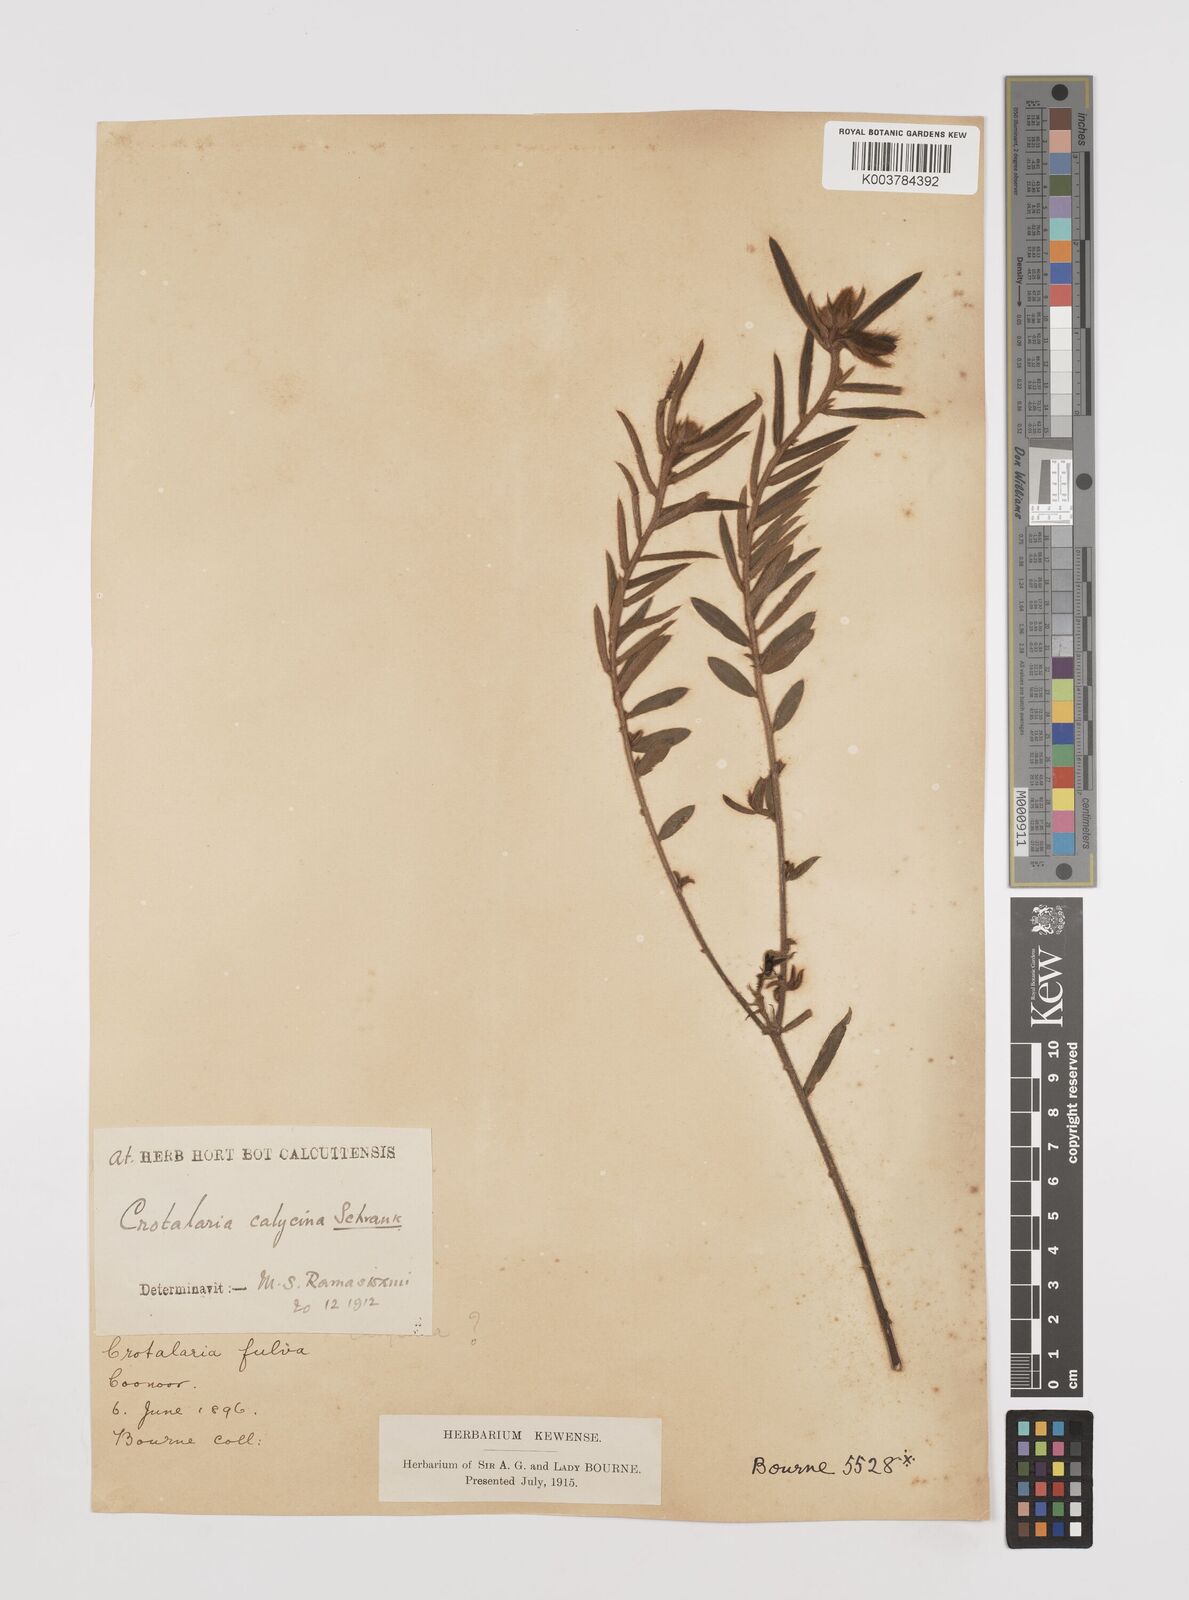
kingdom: Plantae
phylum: Tracheophyta
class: Magnoliopsida
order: Fabales
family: Fabaceae
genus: Crotalaria
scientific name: Crotalaria calycina
